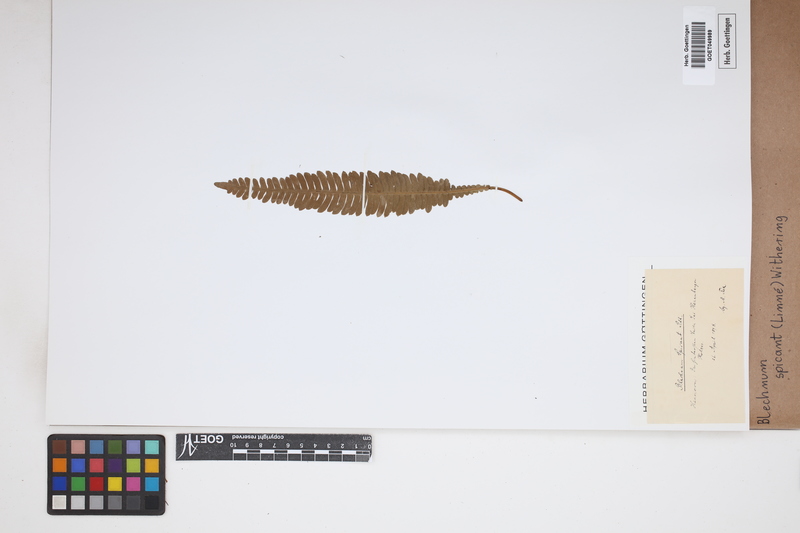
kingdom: Plantae
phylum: Tracheophyta
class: Polypodiopsida
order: Polypodiales
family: Blechnaceae
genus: Struthiopteris
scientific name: Struthiopteris spicant
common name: Deer fern
